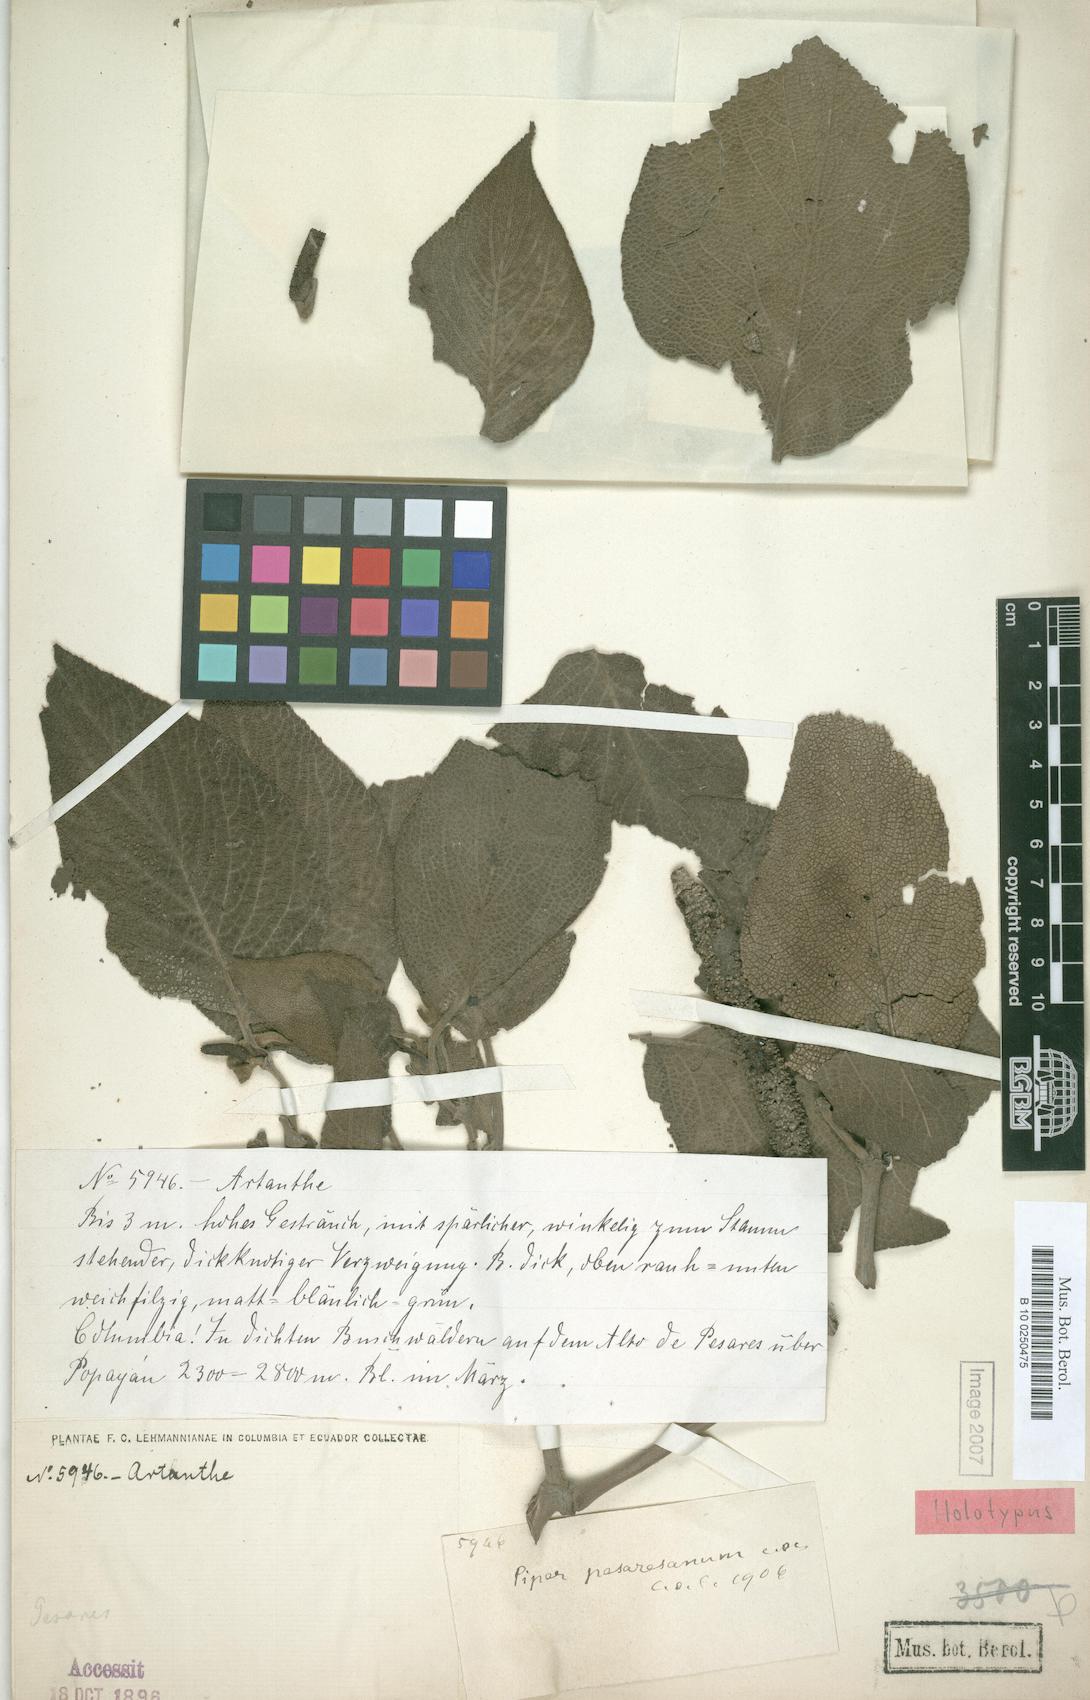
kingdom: Plantae
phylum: Tracheophyta
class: Magnoliopsida
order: Piperales
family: Piperaceae
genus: Piper
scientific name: Piper irazuanum
